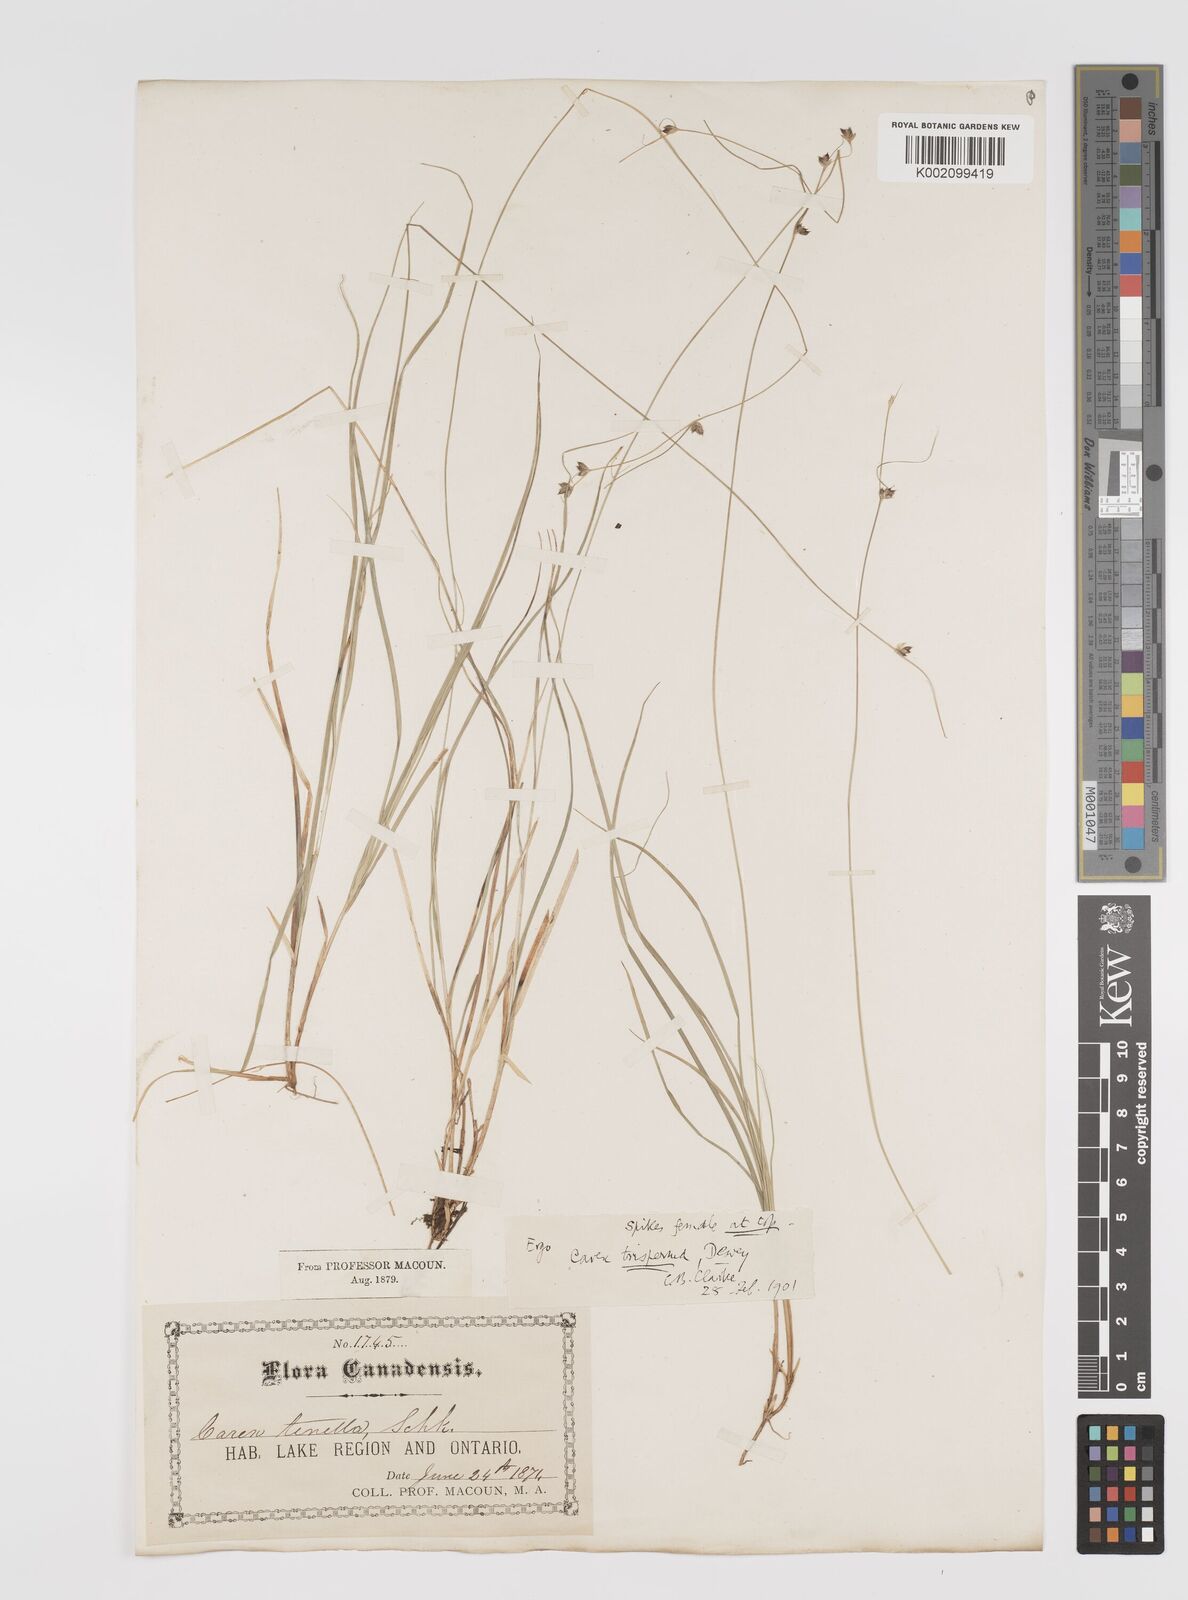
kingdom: Plantae
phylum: Tracheophyta
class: Liliopsida
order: Poales
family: Cyperaceae
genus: Carex
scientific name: Carex trisperma
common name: Three-seeded sedge
